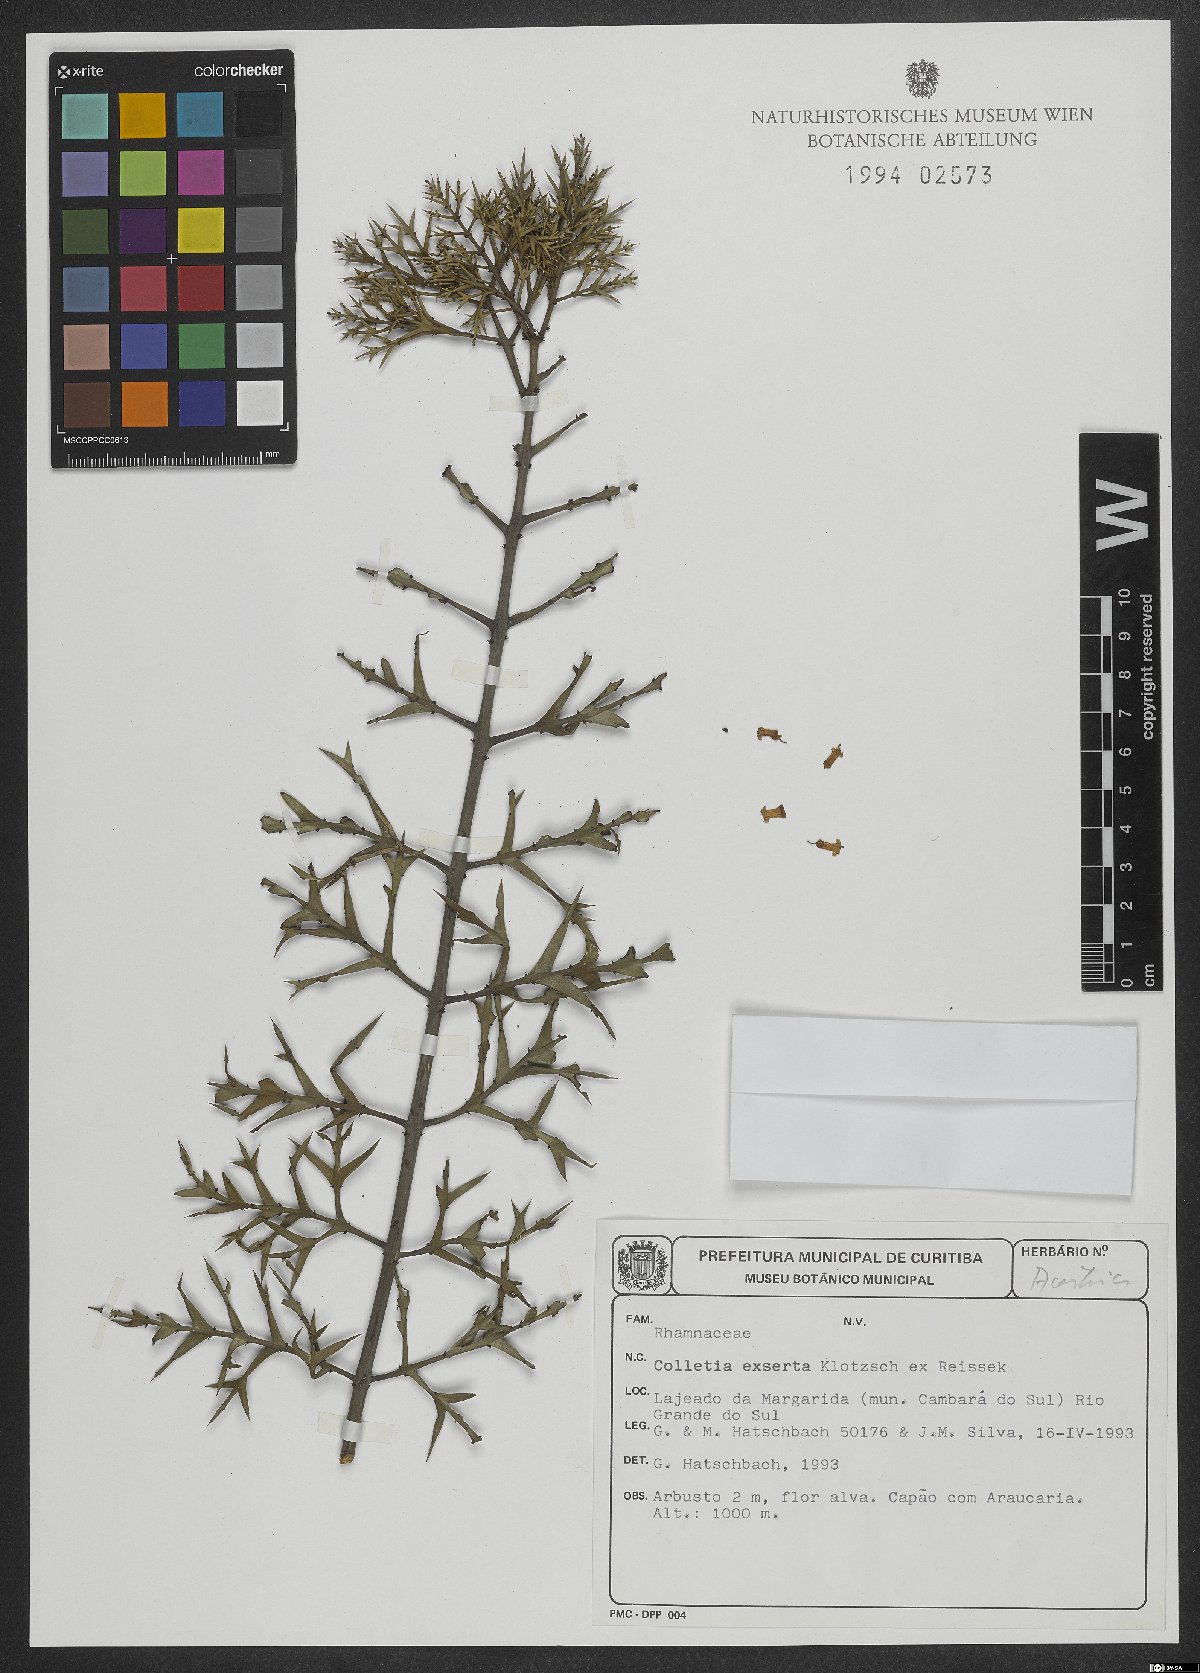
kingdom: Plantae
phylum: Tracheophyta
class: Magnoliopsida
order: Rosales
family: Rhamnaceae
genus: Colletia
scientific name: Colletia paradoxa
